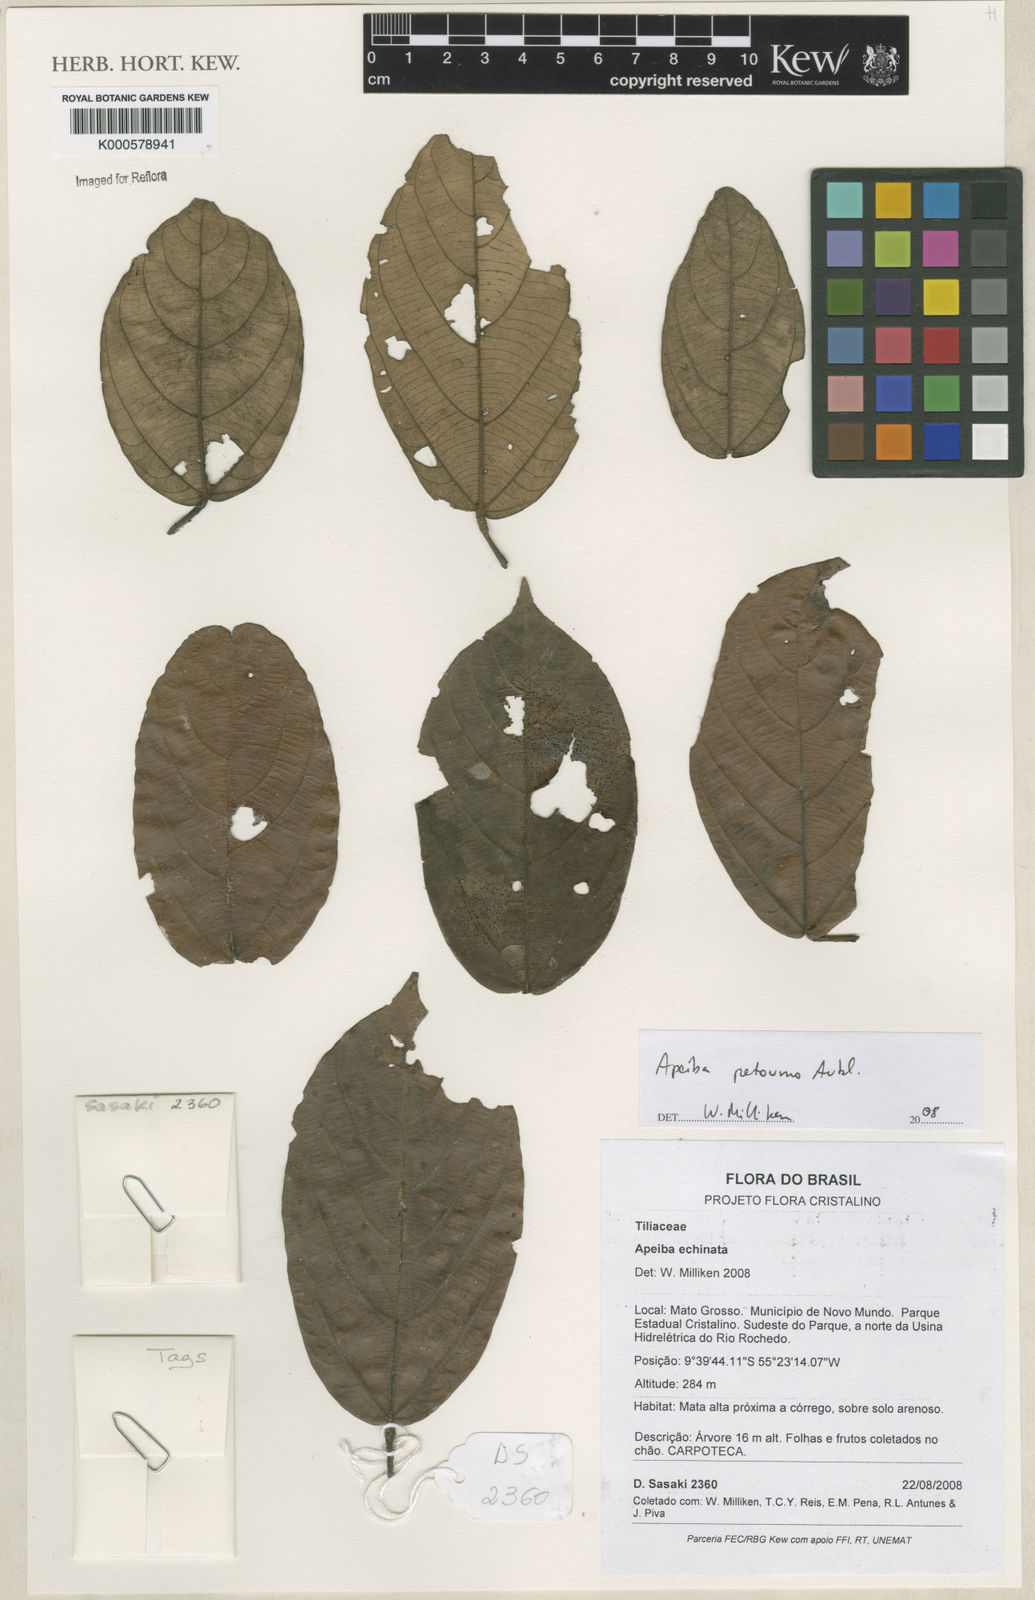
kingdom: Plantae
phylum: Tracheophyta
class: Magnoliopsida
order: Malvales
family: Malvaceae
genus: Apeiba
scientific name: Apeiba petoumo
